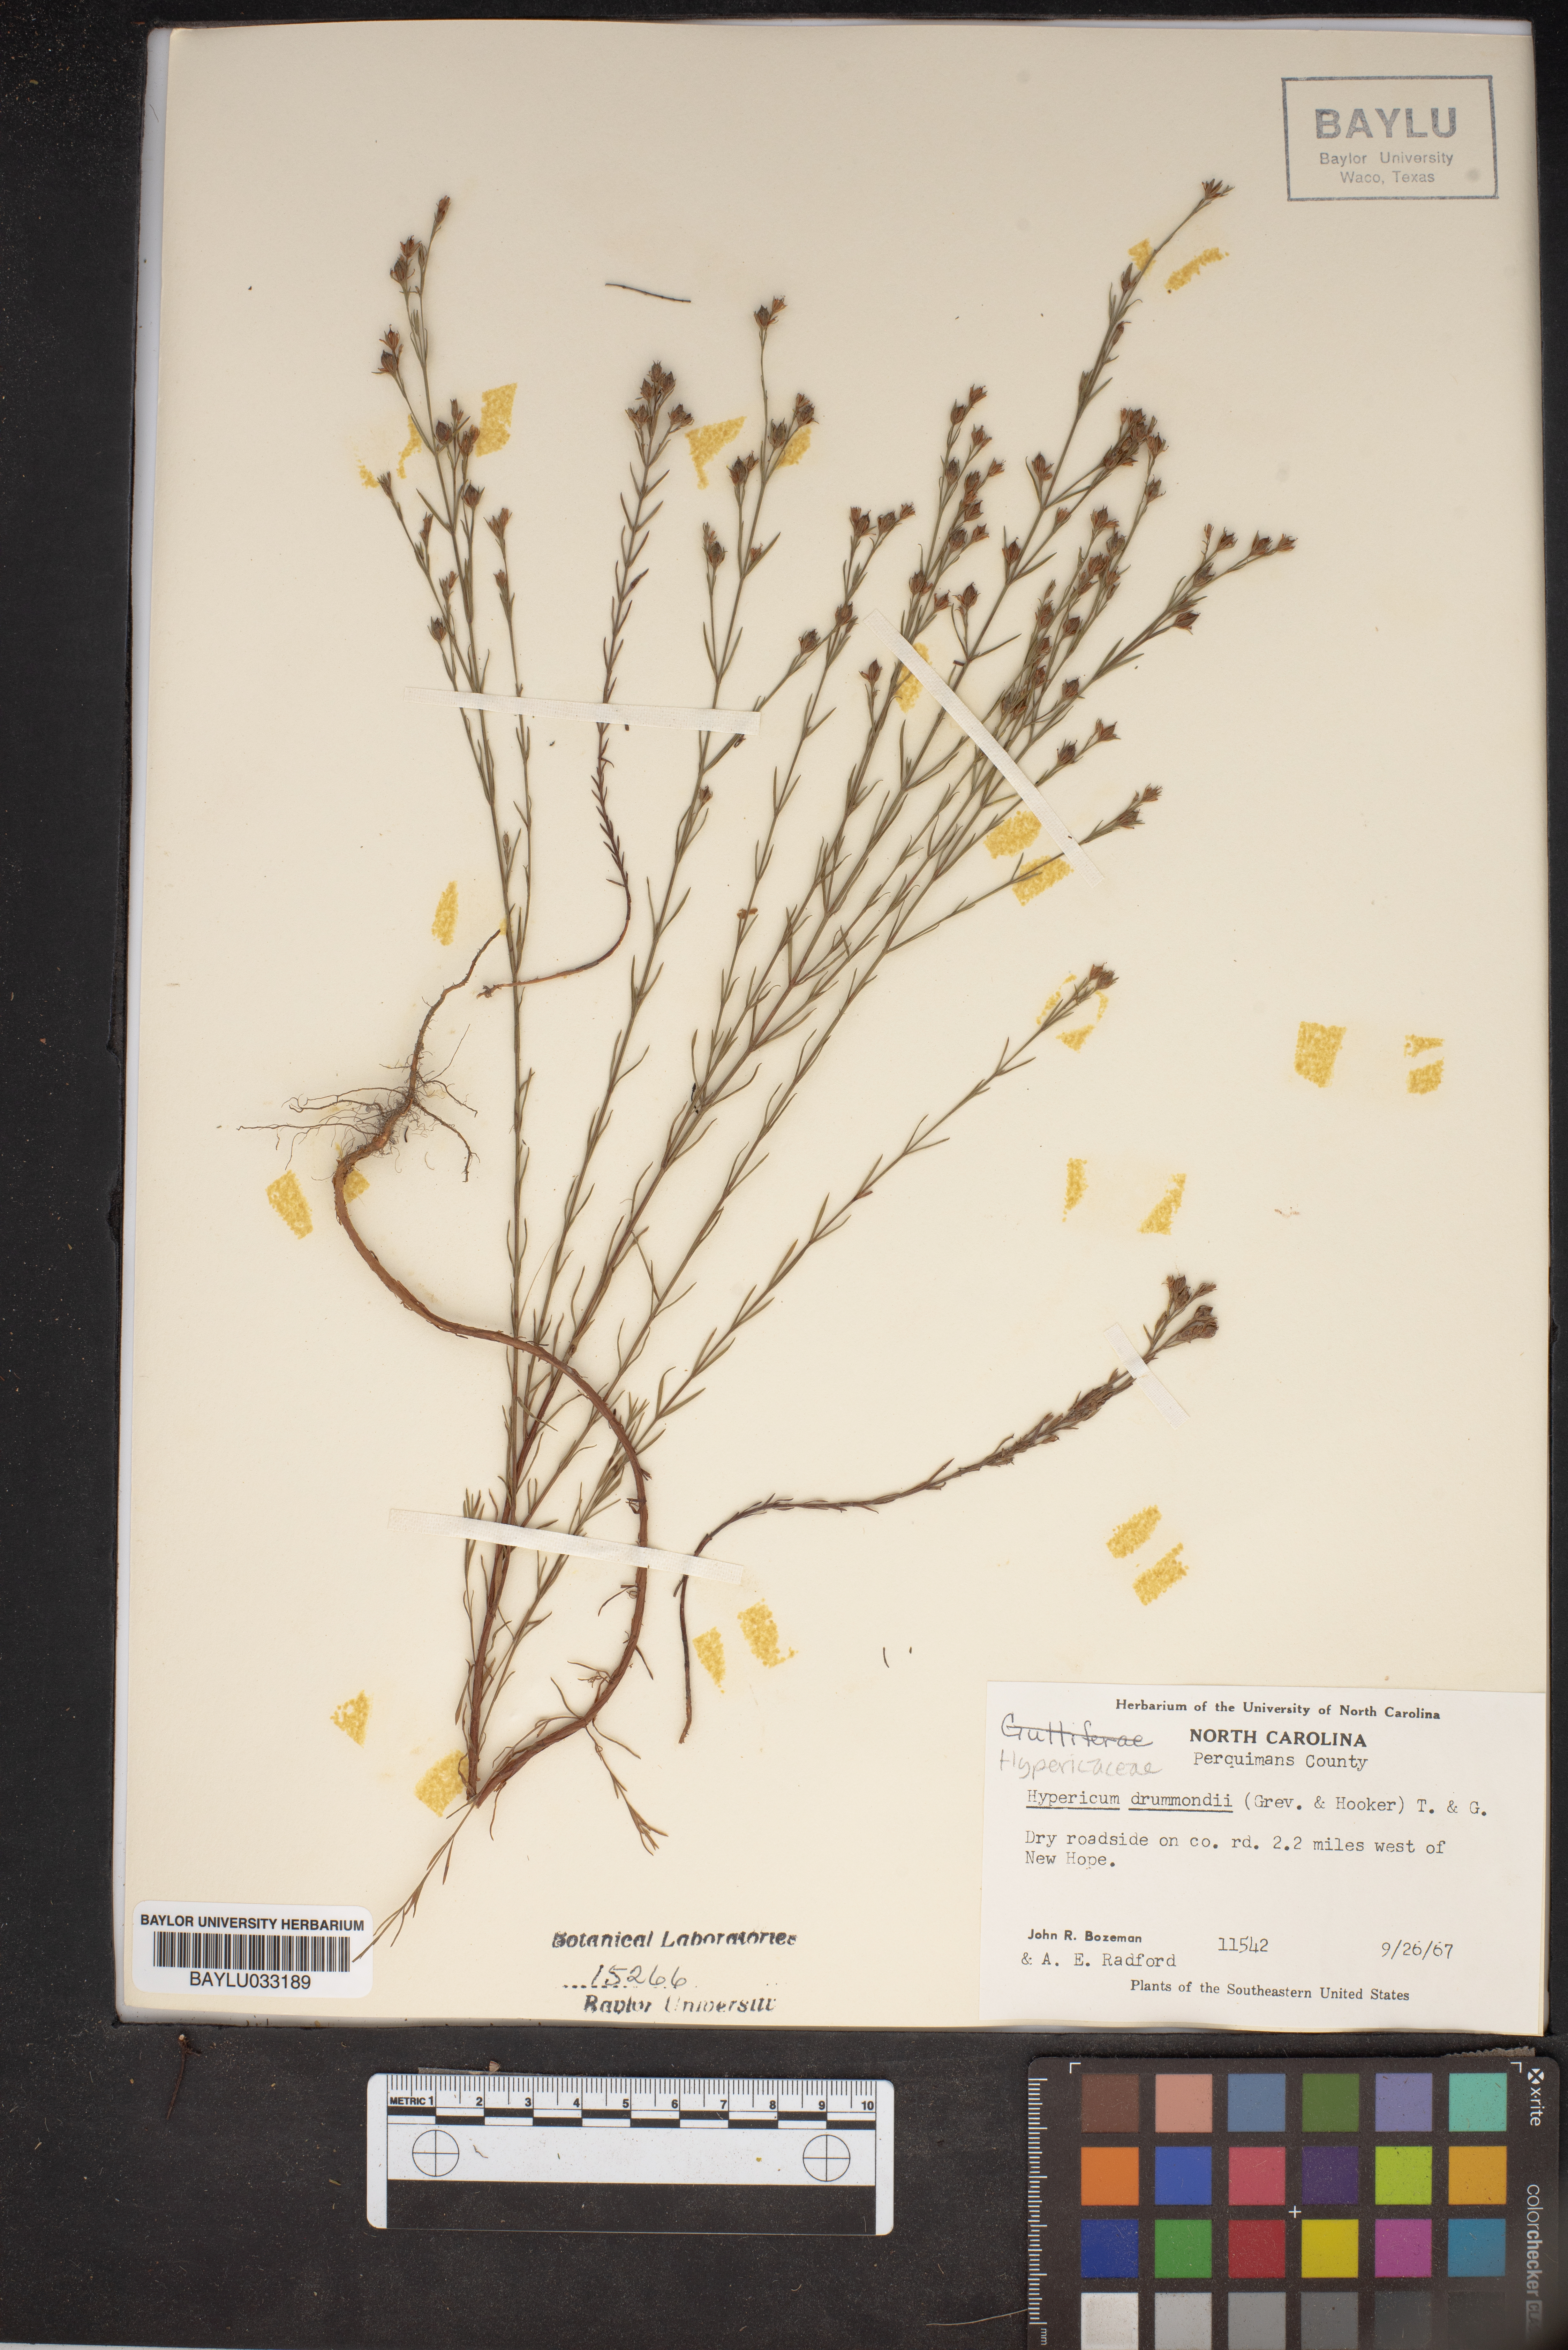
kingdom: Plantae
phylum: Tracheophyta
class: Magnoliopsida
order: Malpighiales
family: Hypericaceae
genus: Hypericum
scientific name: Hypericum drummondii
